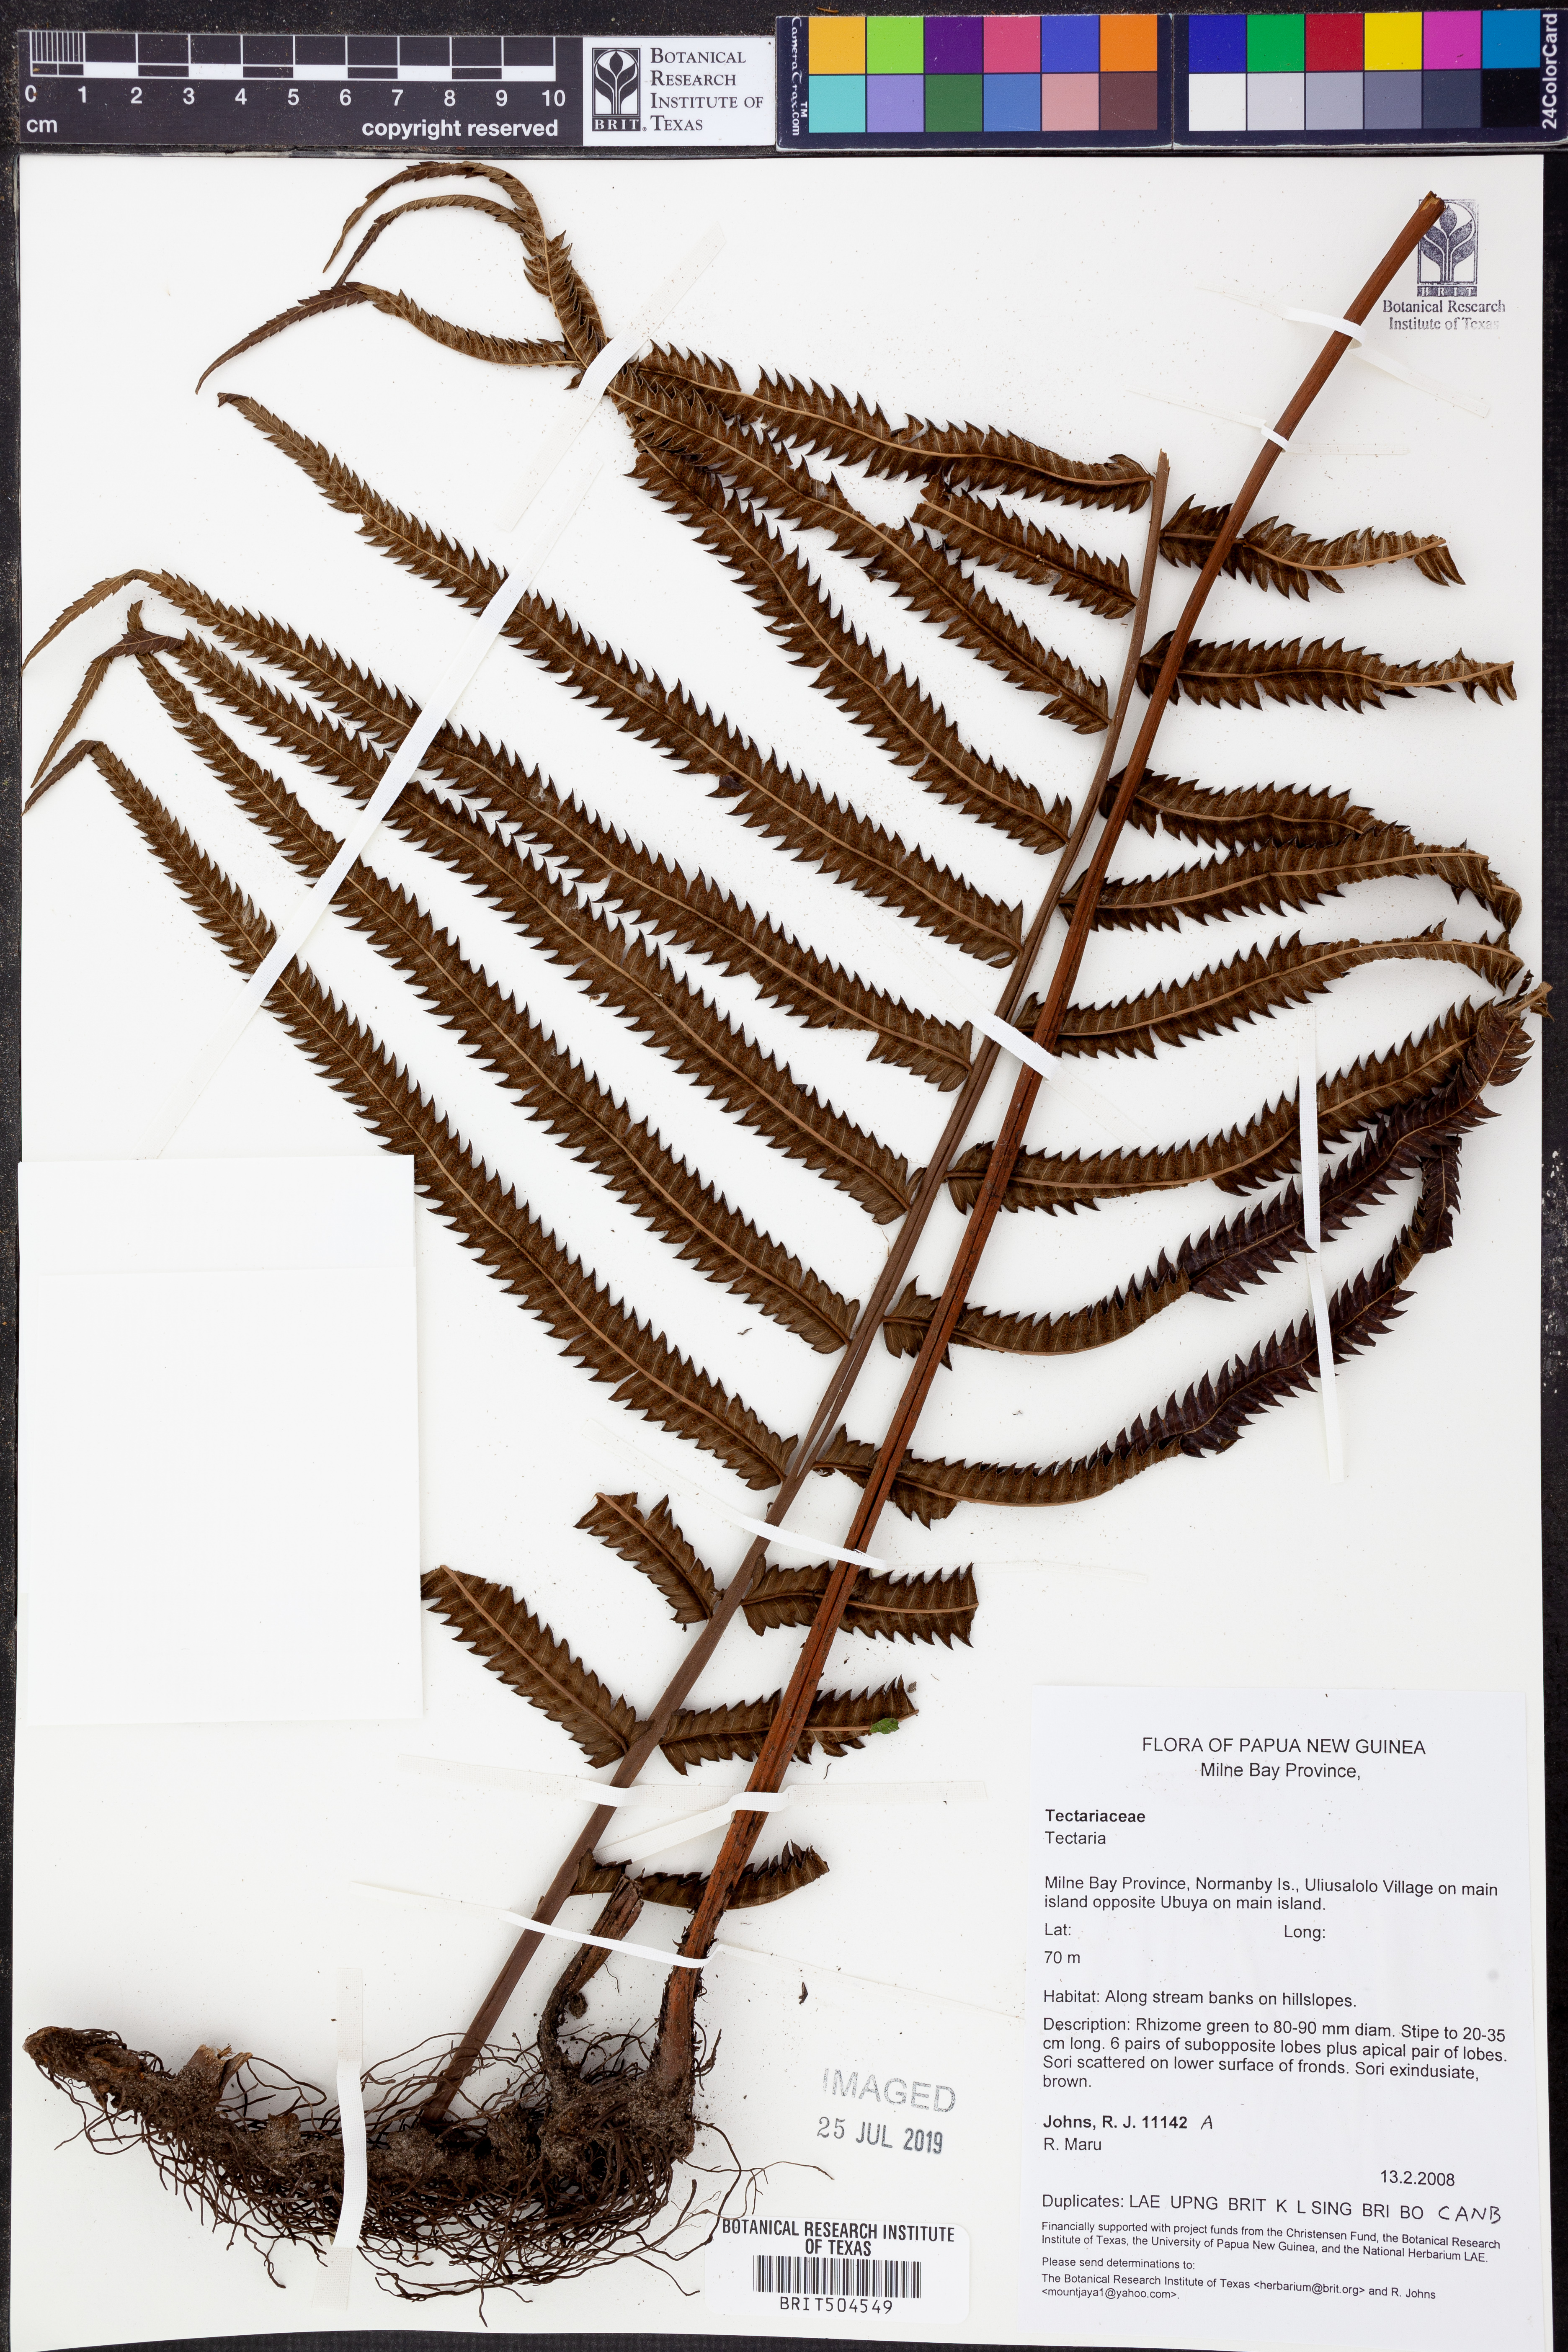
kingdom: Plantae
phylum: Tracheophyta
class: Polypodiopsida
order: Polypodiales
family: Tectariaceae
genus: Tectaria
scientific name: Tectaria
